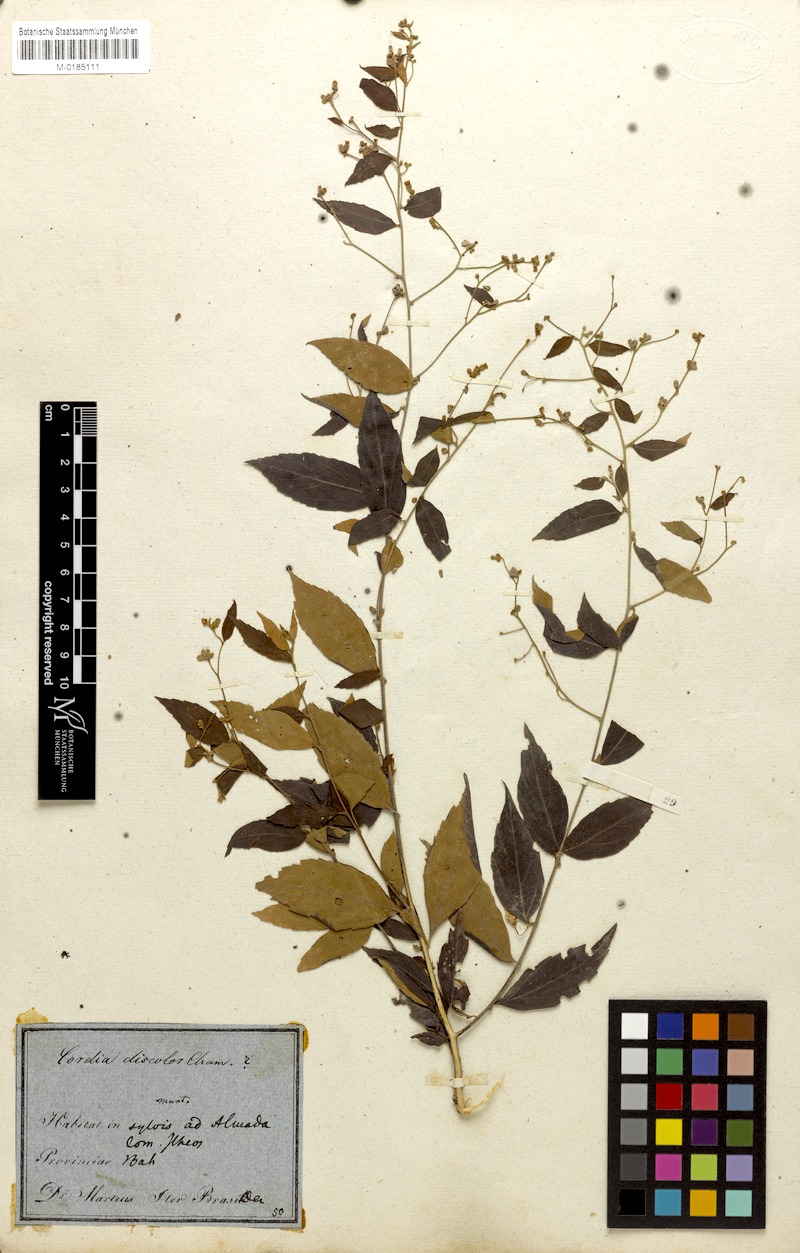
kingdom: Plantae
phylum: Tracheophyta
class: Magnoliopsida
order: Boraginales
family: Cordiaceae
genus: Varronia
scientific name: Varronia polycephala
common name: Black-sage
